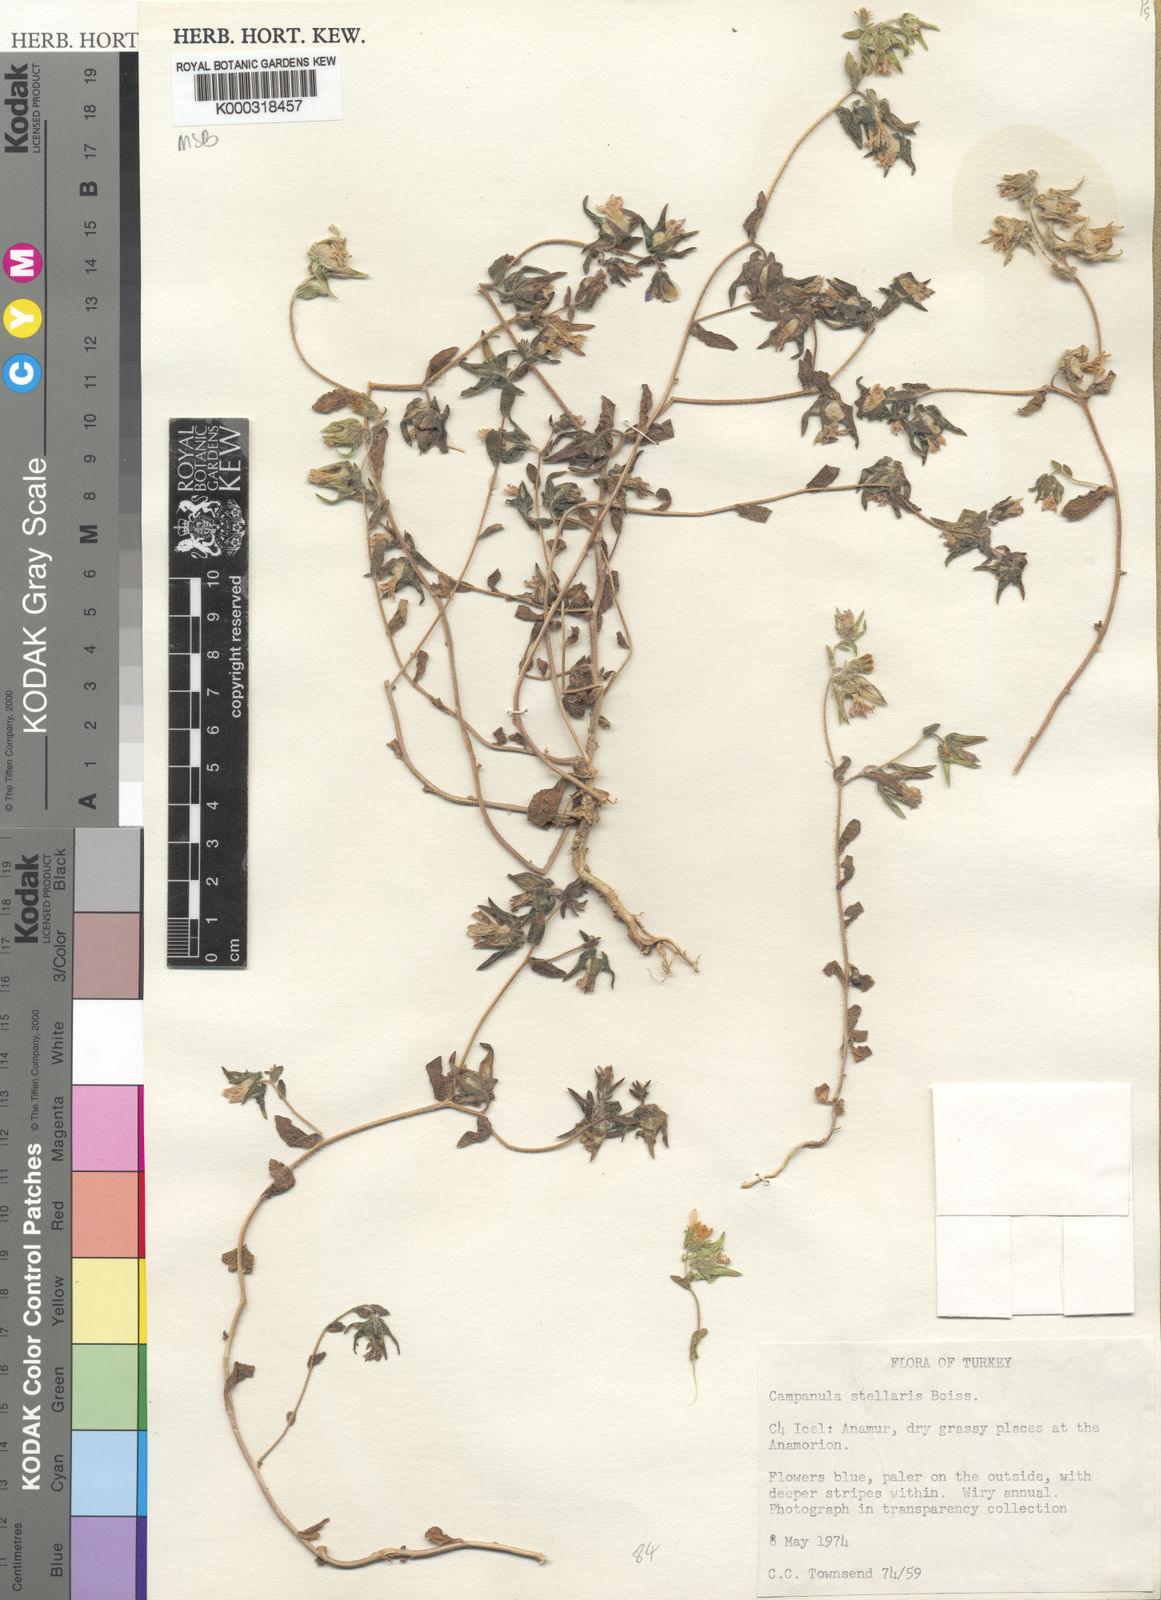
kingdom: Plantae
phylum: Tracheophyta
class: Magnoliopsida
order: Asterales
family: Campanulaceae
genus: Campanula
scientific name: Campanula stellaris
